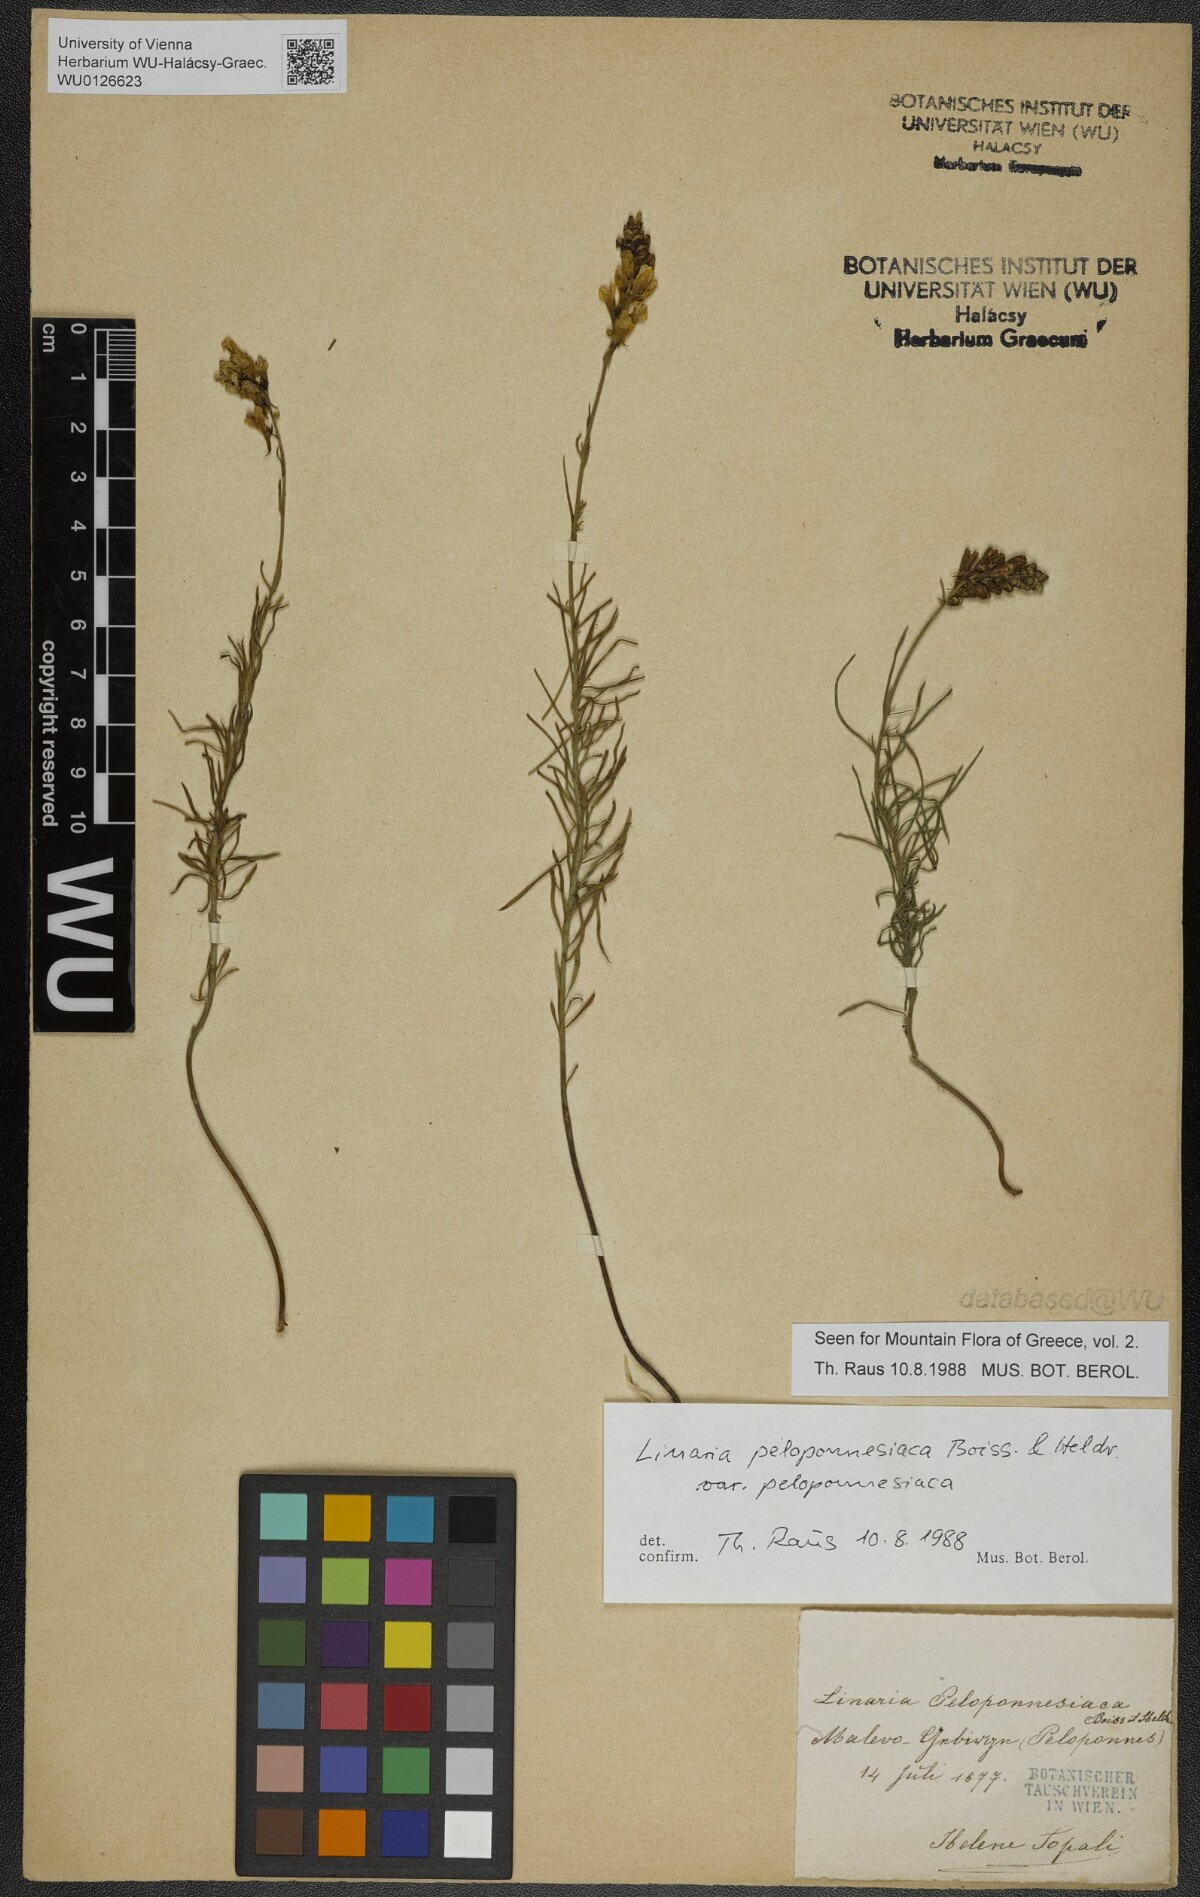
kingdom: Plantae
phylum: Tracheophyta
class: Magnoliopsida
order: Lamiales
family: Plantaginaceae
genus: Linaria
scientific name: Linaria peloponnesiaca
